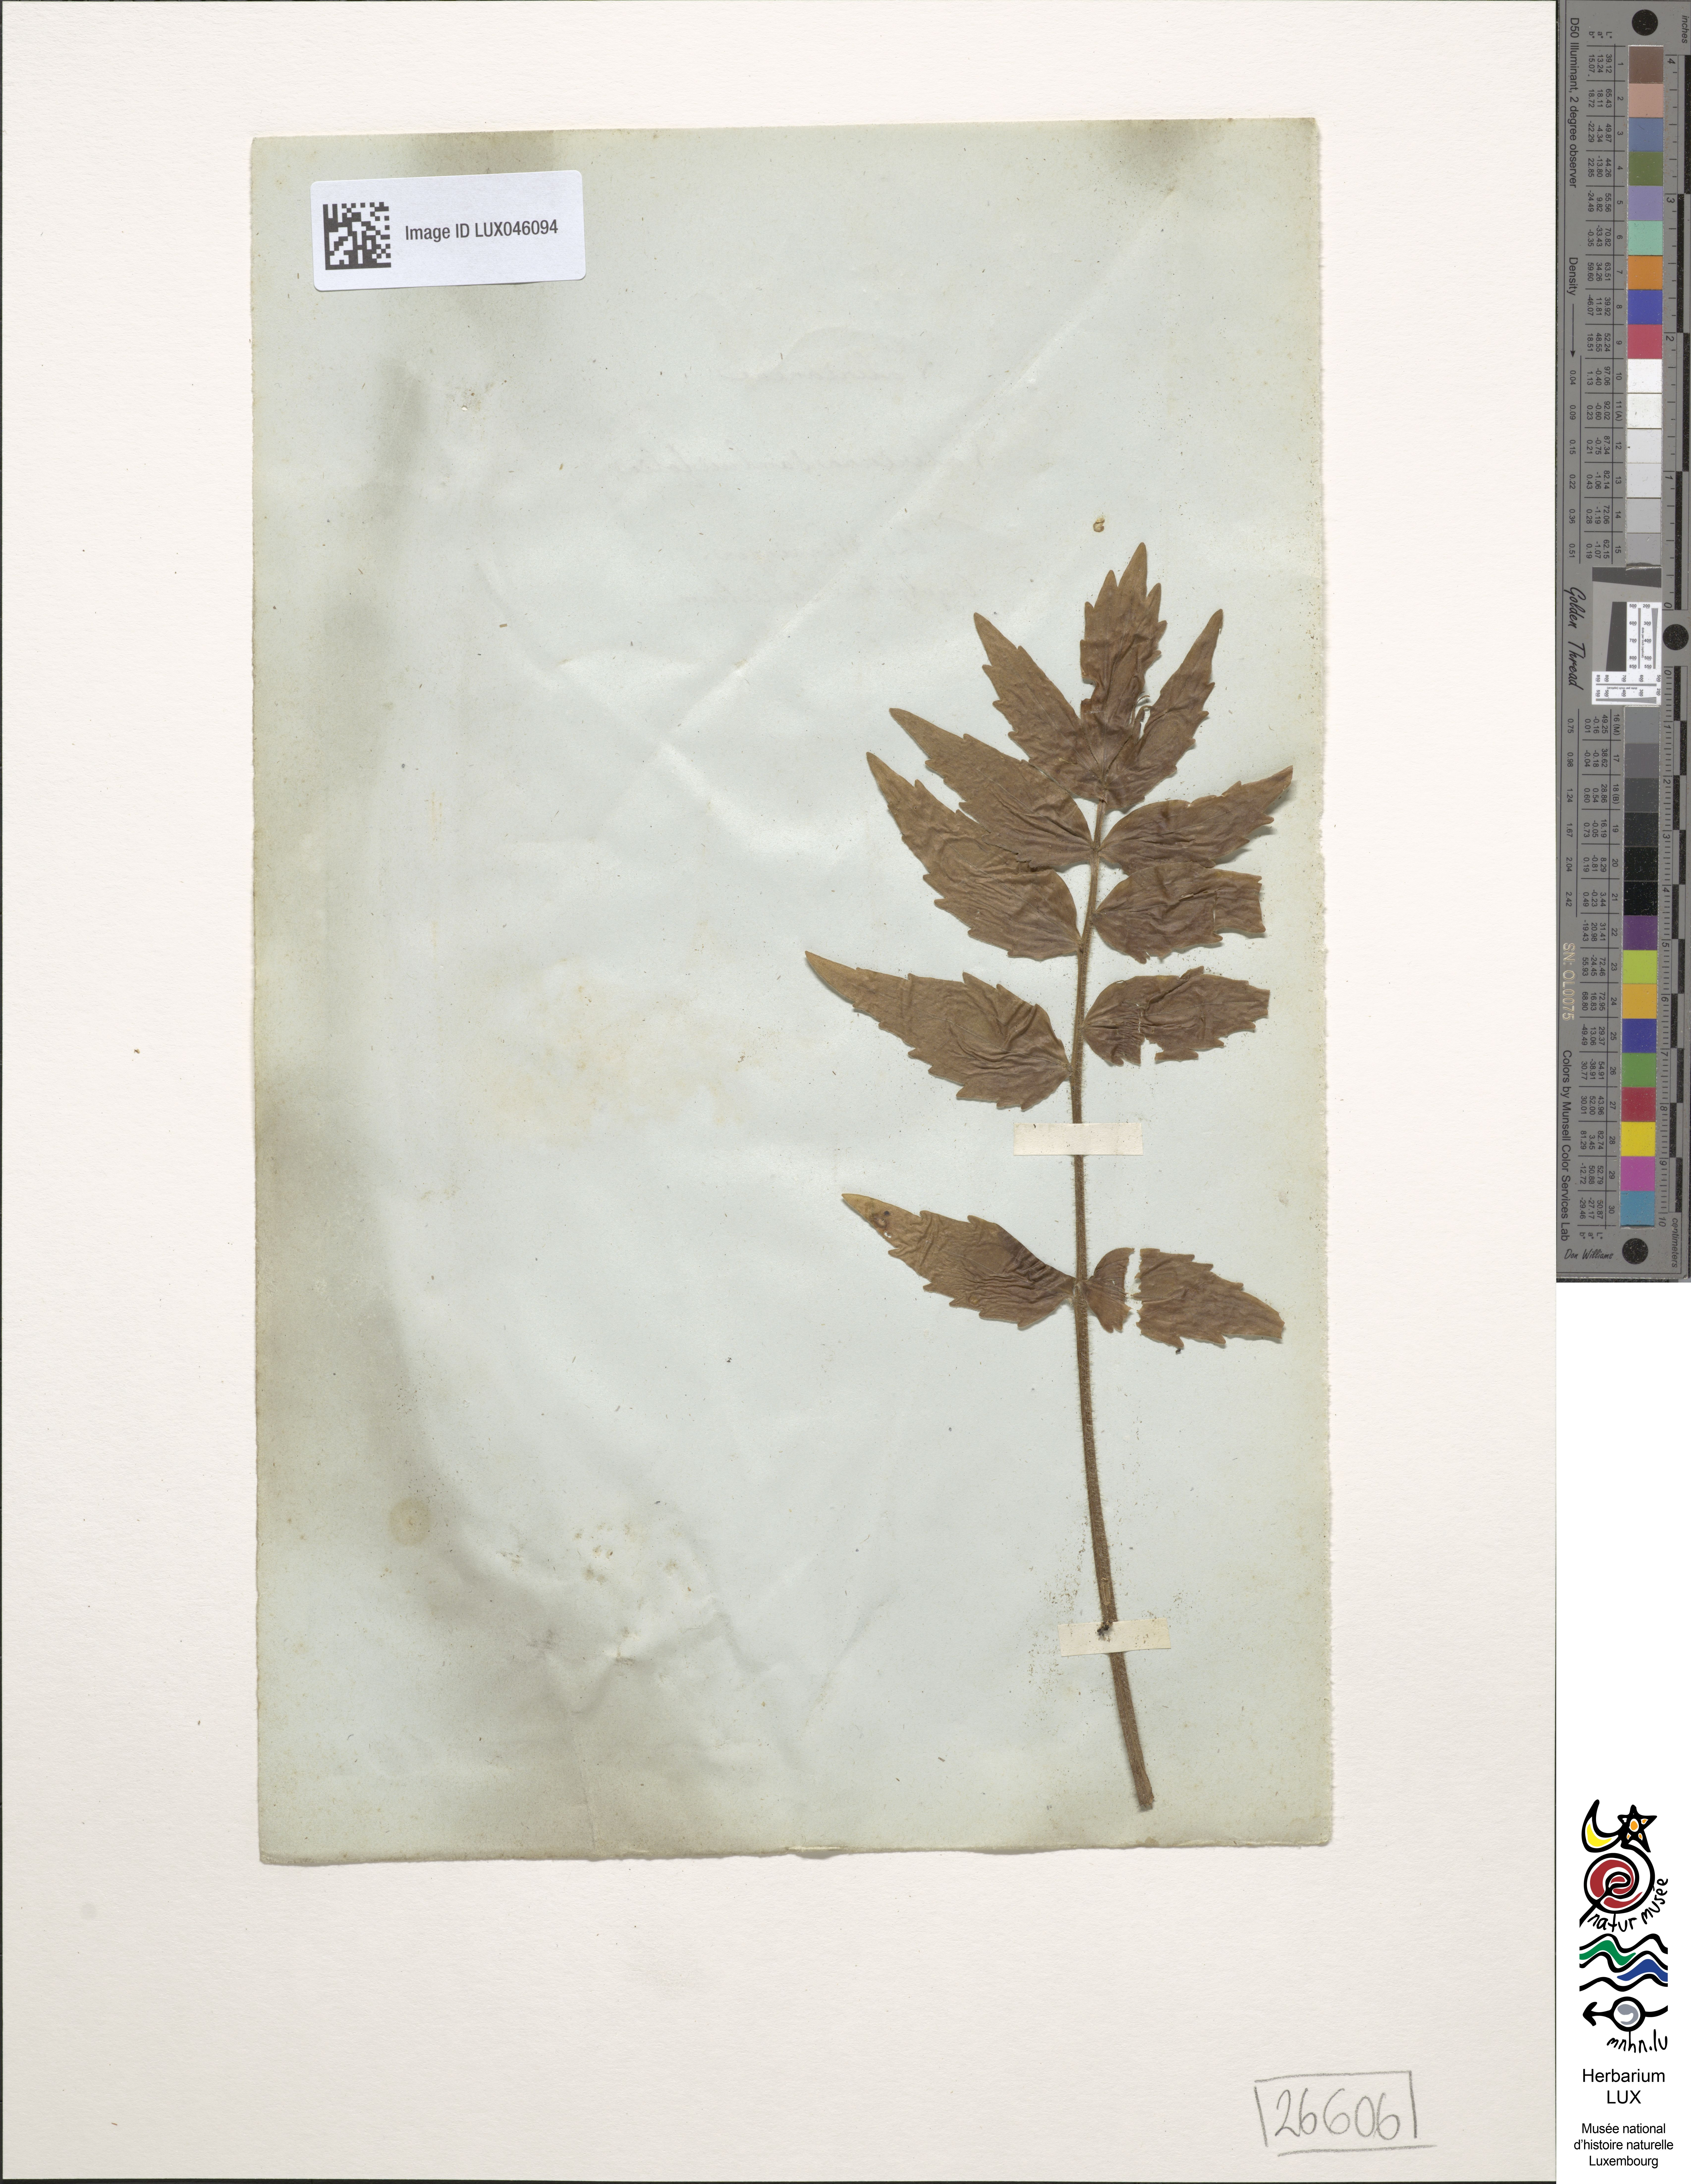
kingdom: Plantae
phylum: Tracheophyta
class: Magnoliopsida
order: Dipsacales
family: Caprifoliaceae
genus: Valeriana
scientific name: Valeriana excelsa
